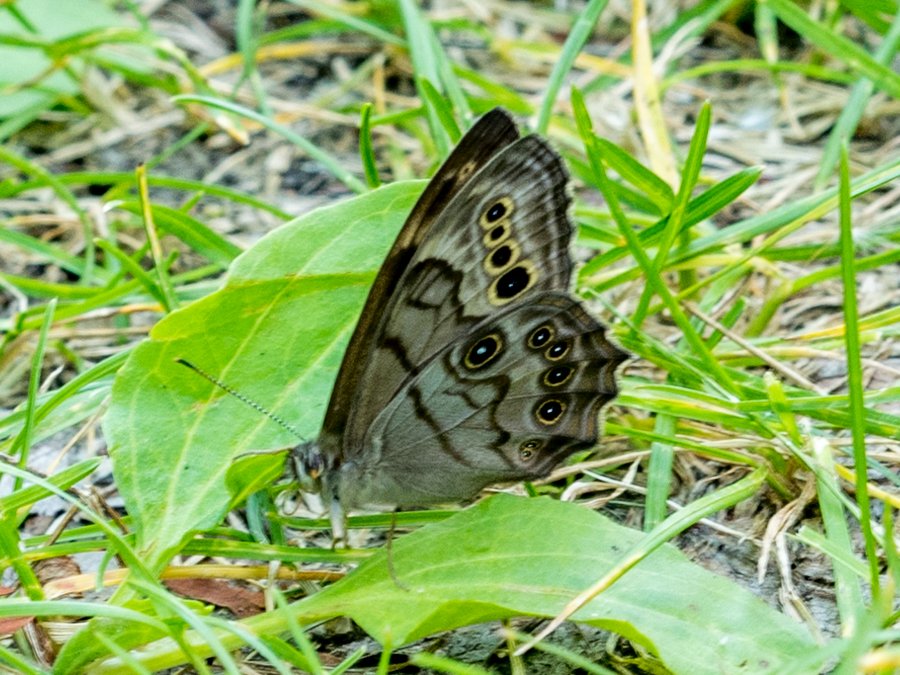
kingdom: Animalia
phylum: Arthropoda
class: Insecta
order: Lepidoptera
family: Nymphalidae
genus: Lethe
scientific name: Lethe anthedon
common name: Northern Pearly-Eye
